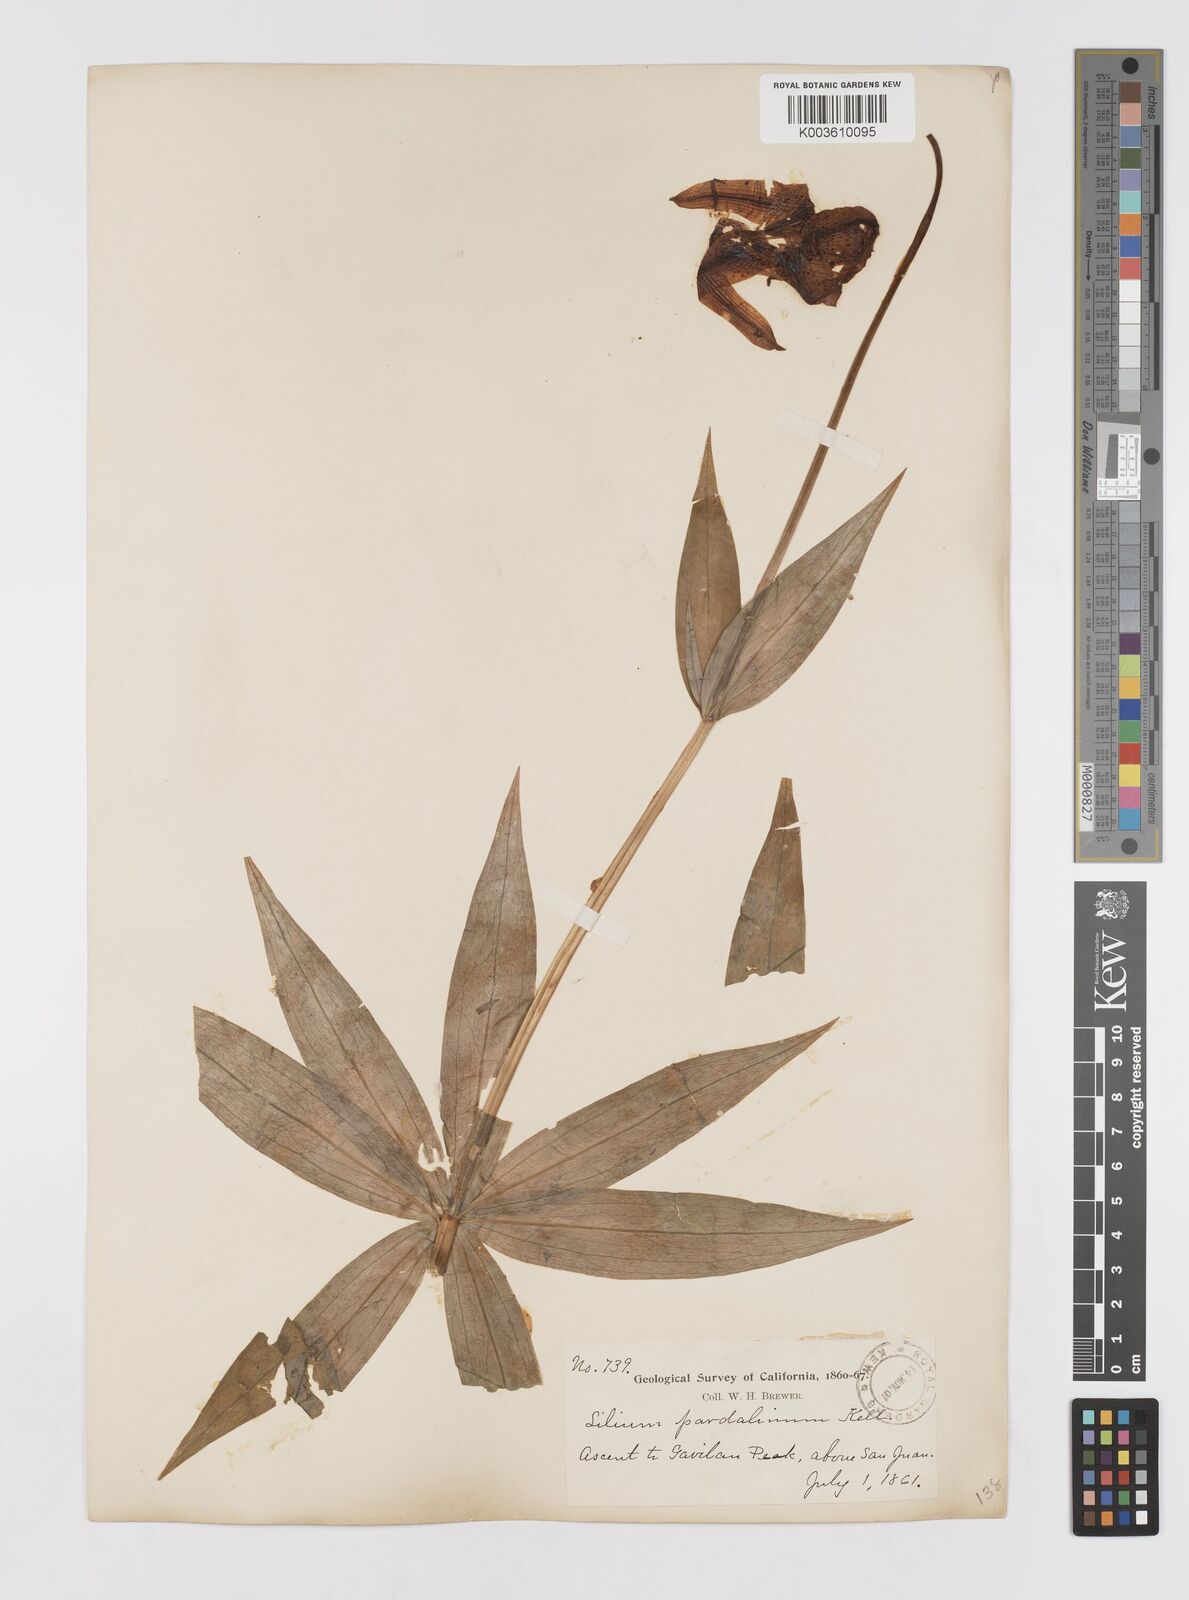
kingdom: Plantae
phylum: Tracheophyta
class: Liliopsida
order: Liliales
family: Liliaceae
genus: Lilium
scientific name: Lilium pardalinum
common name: Panther lily
